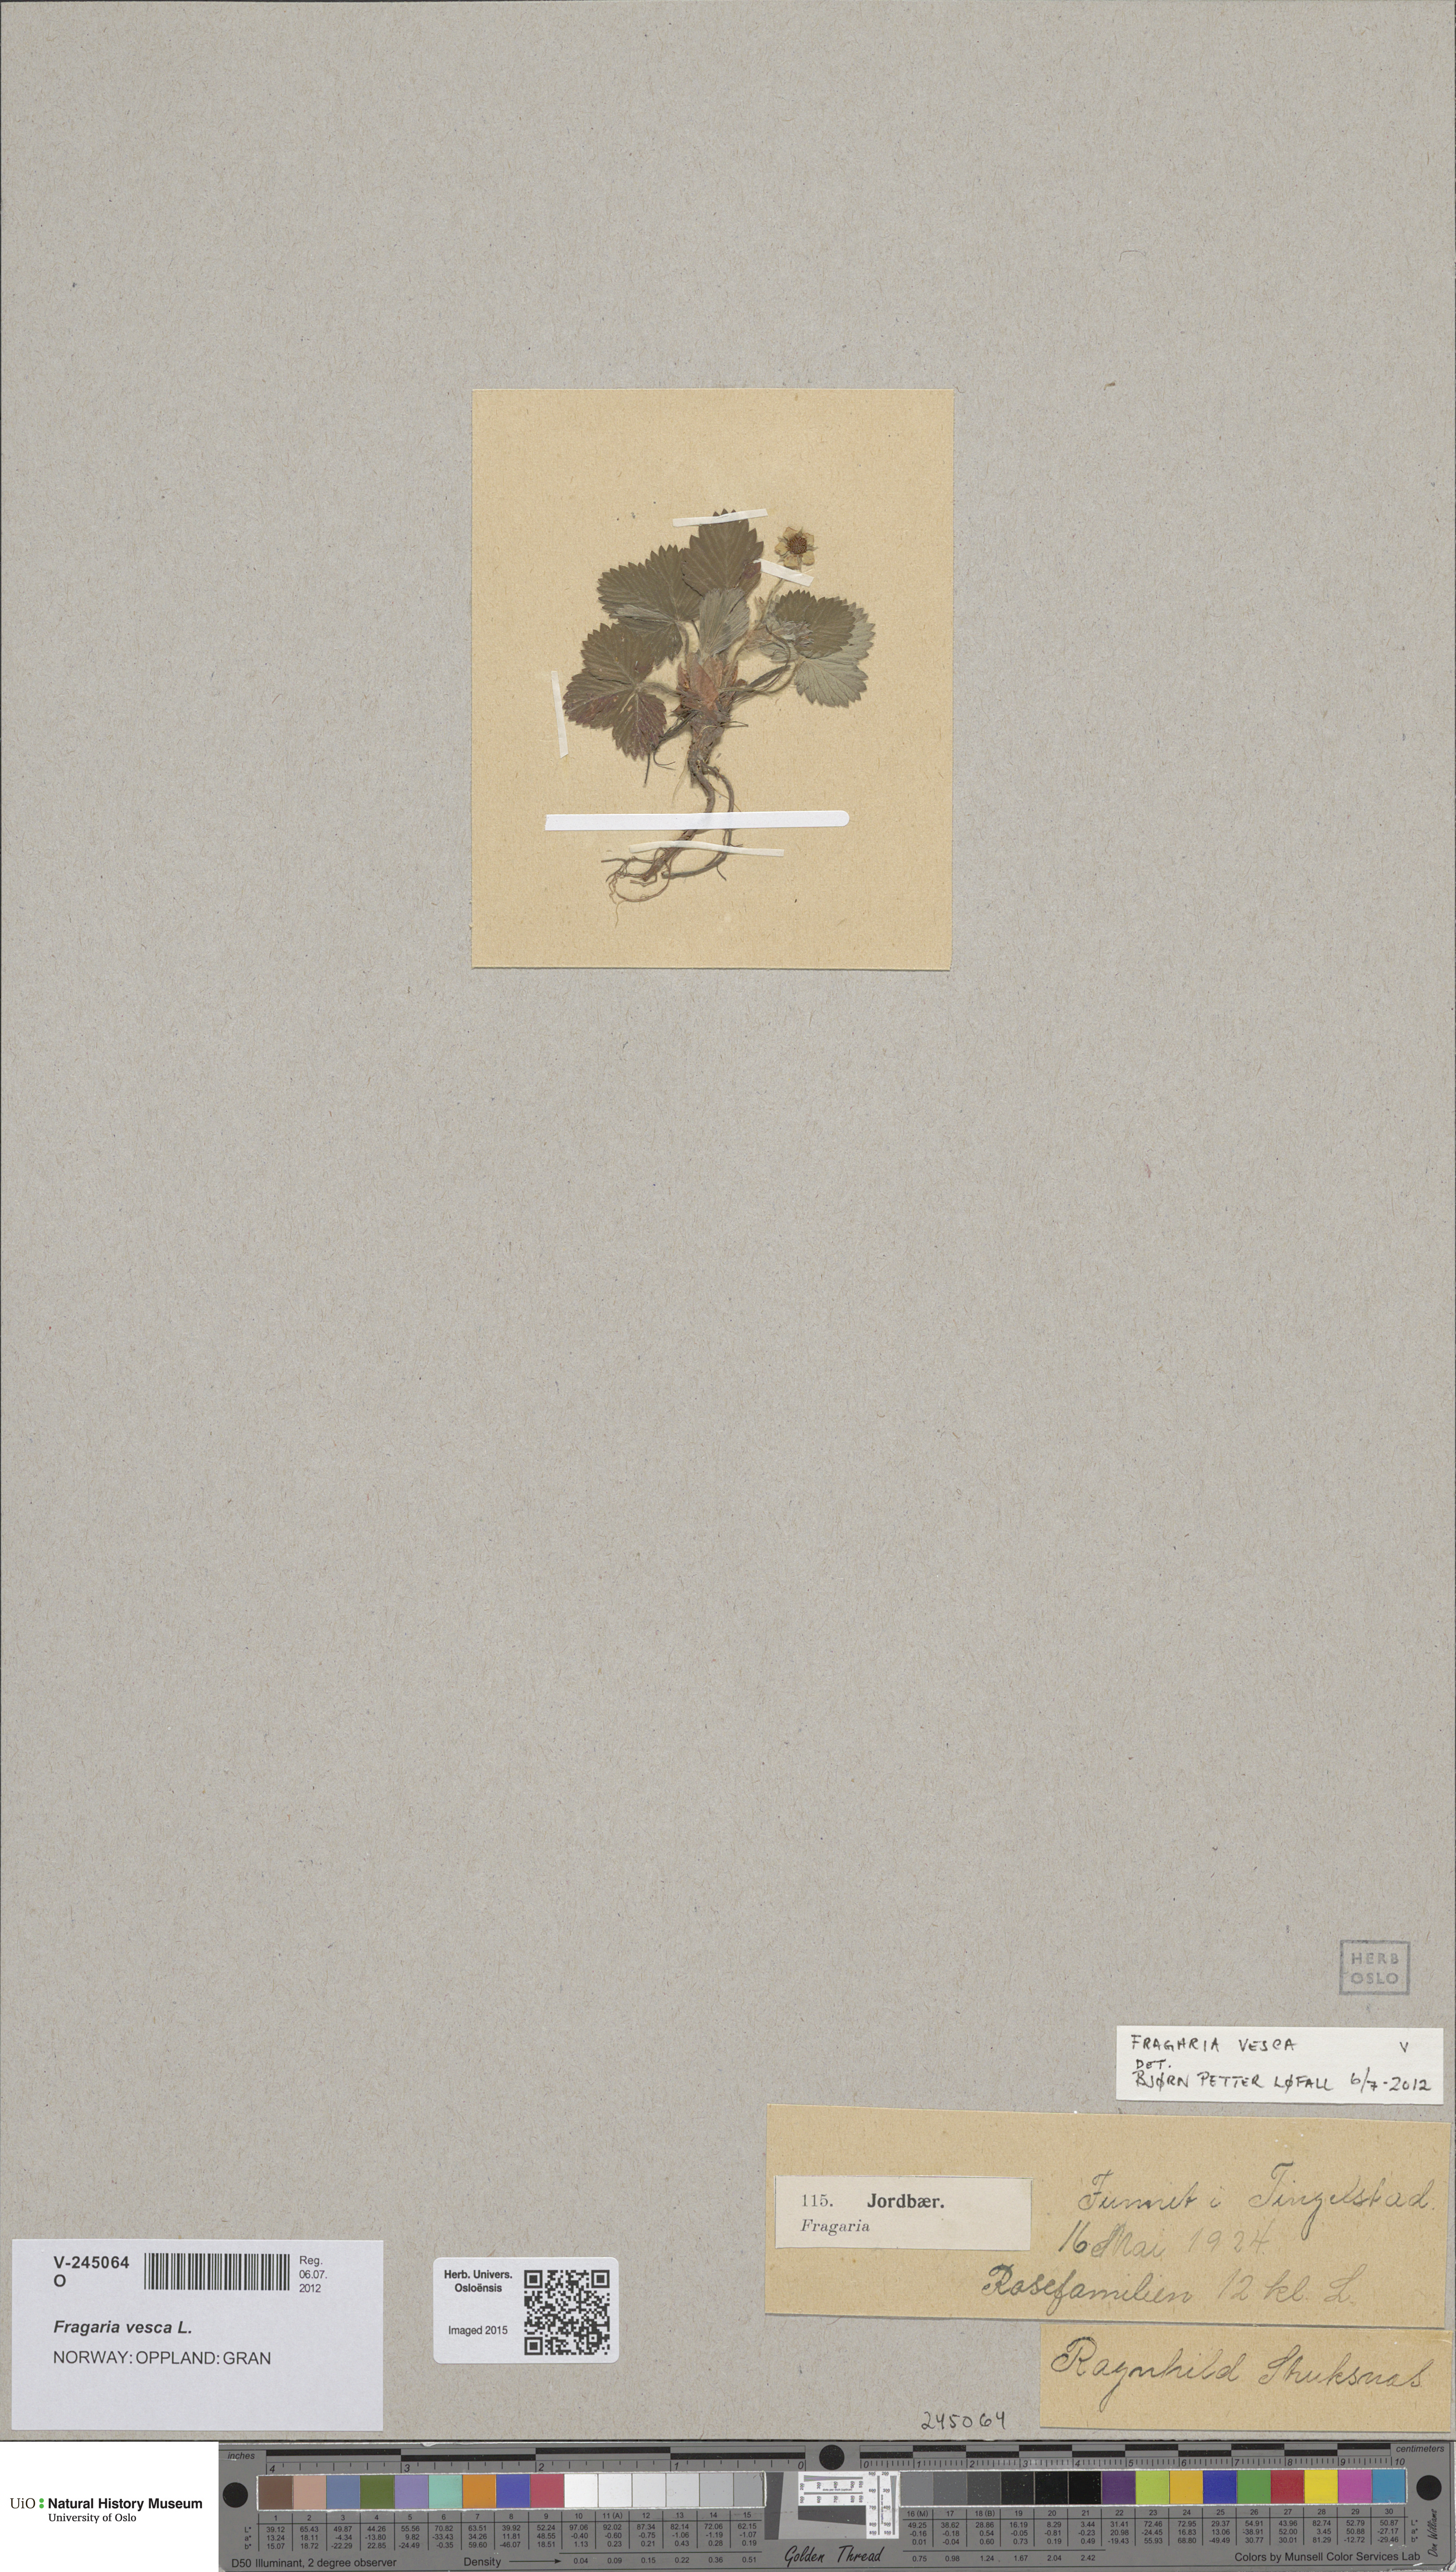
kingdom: Plantae
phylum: Tracheophyta
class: Magnoliopsida
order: Rosales
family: Rosaceae
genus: Fragaria
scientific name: Fragaria vesca
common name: Wild strawberry
